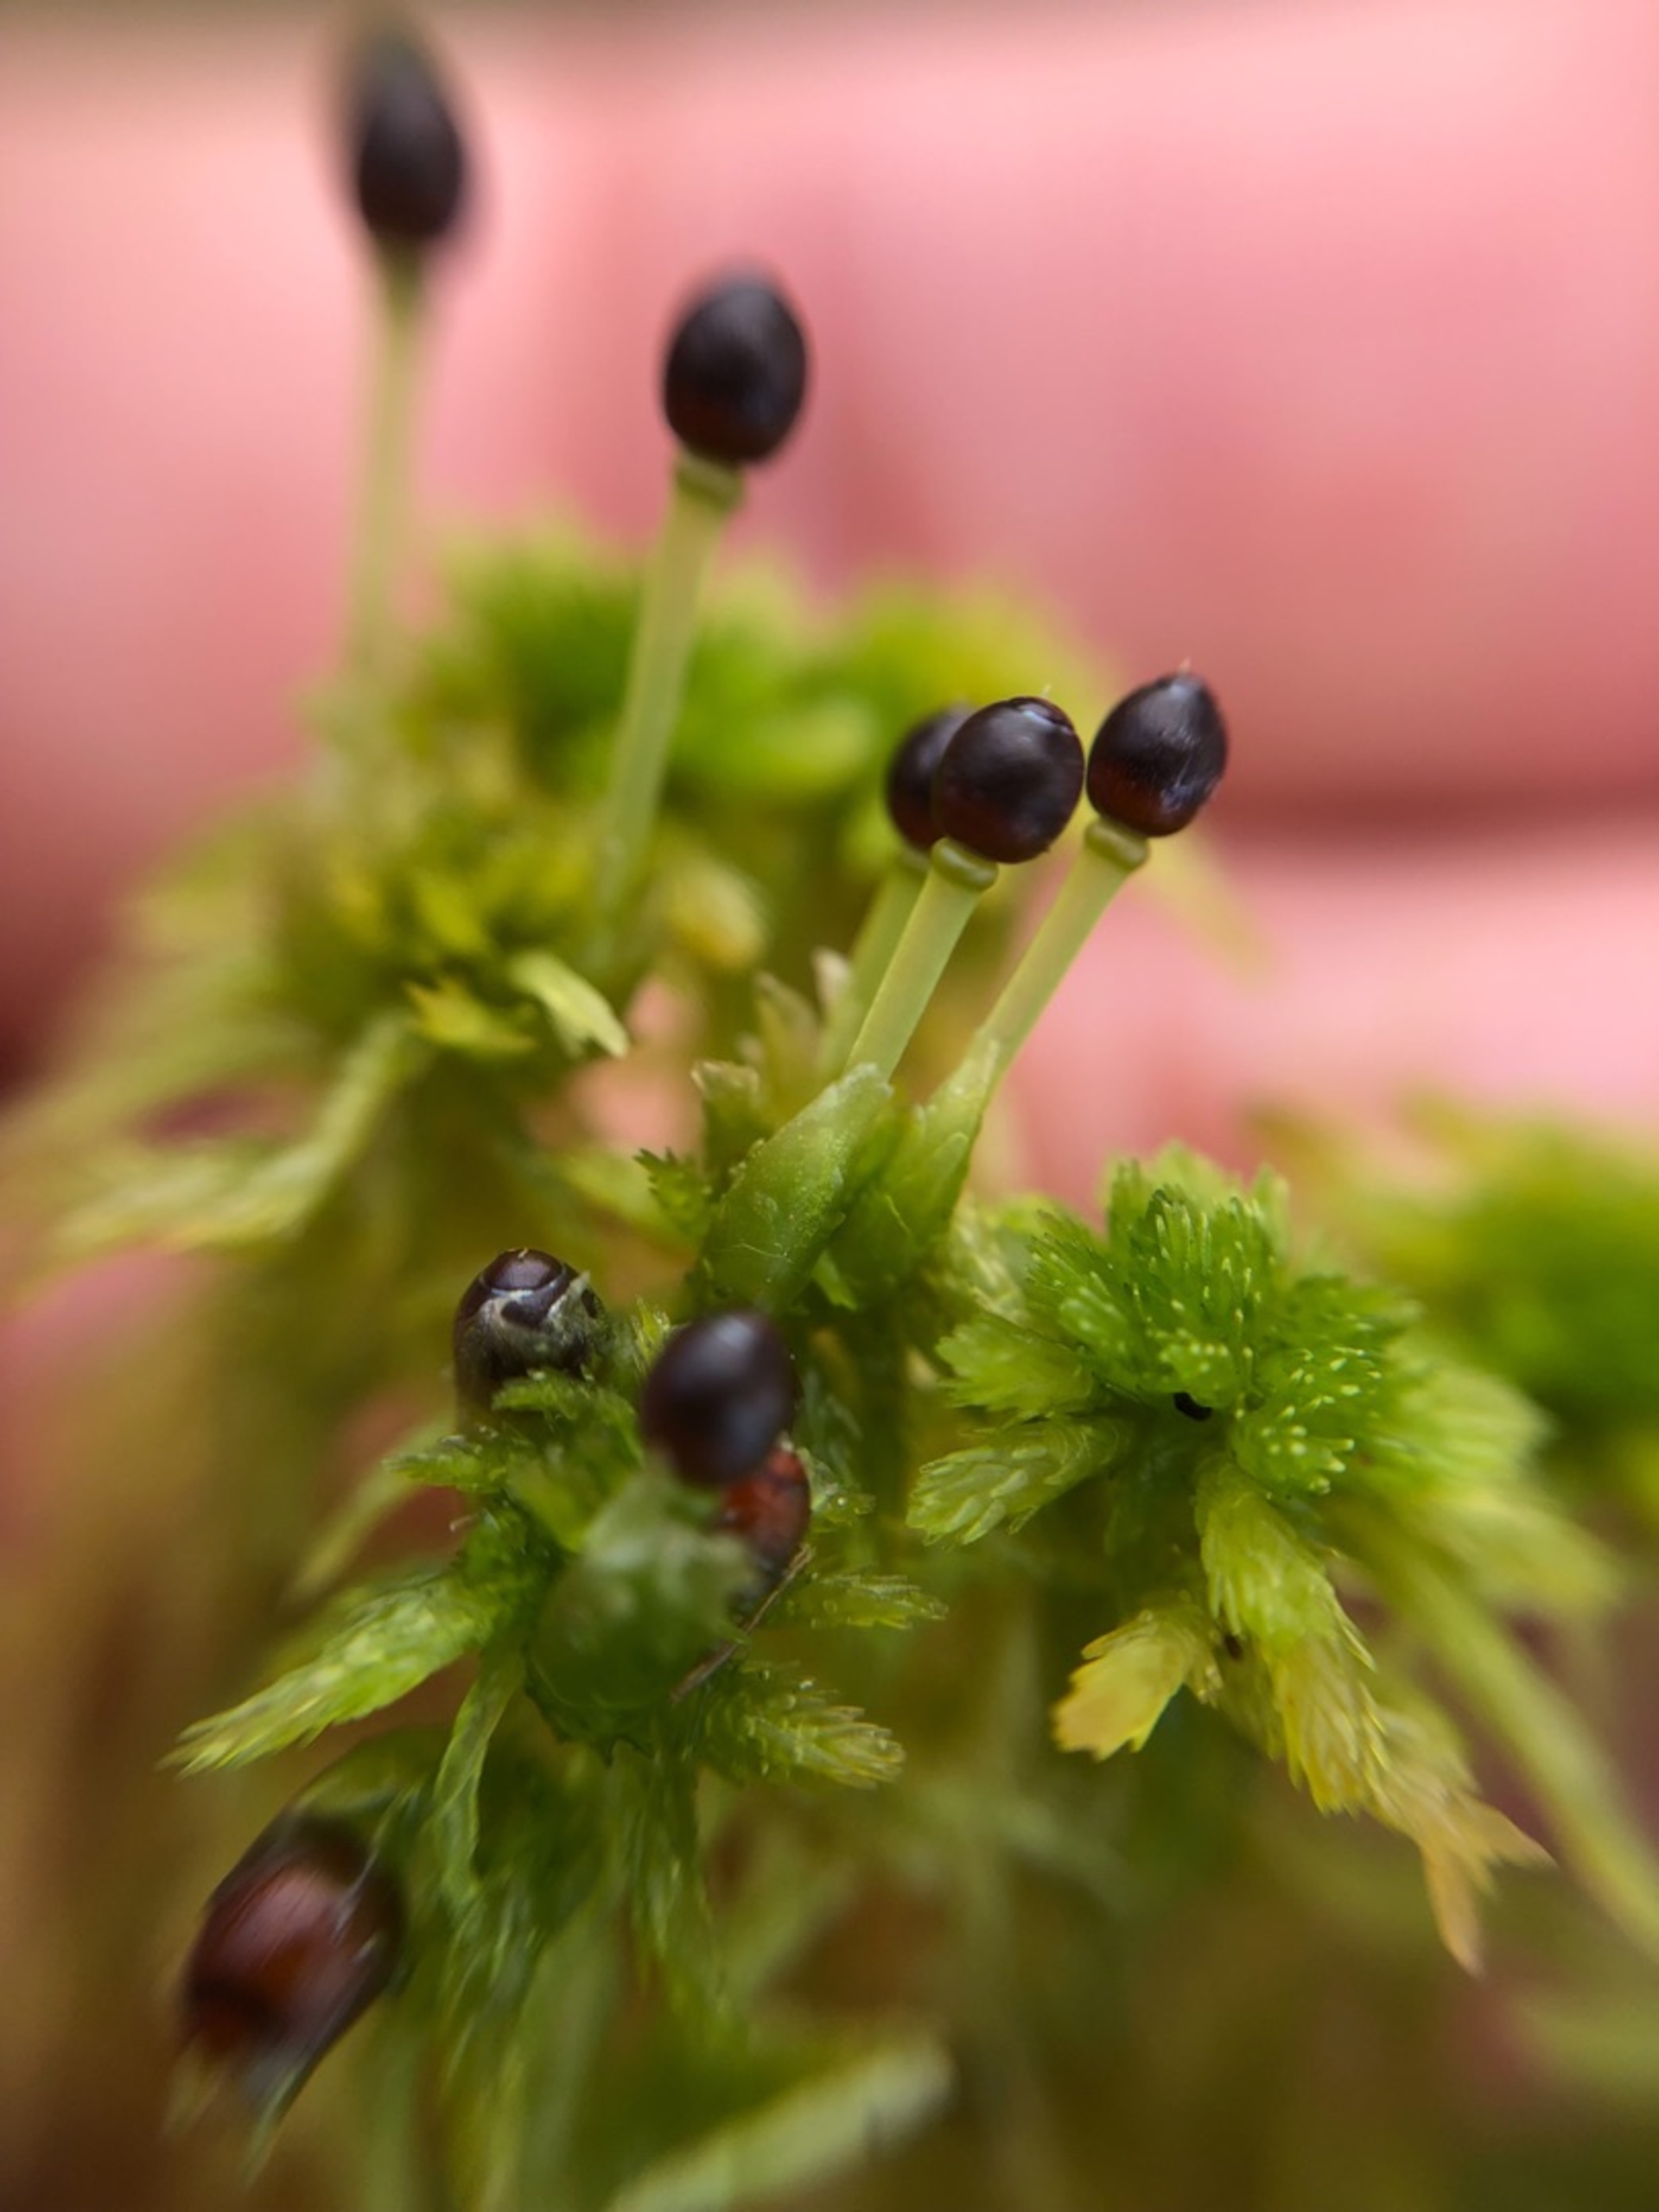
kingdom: Plantae
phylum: Bryophyta
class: Sphagnopsida
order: Sphagnales
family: Sphagnaceae
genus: Sphagnum
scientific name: Sphagnum
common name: Tørvemosslægten
